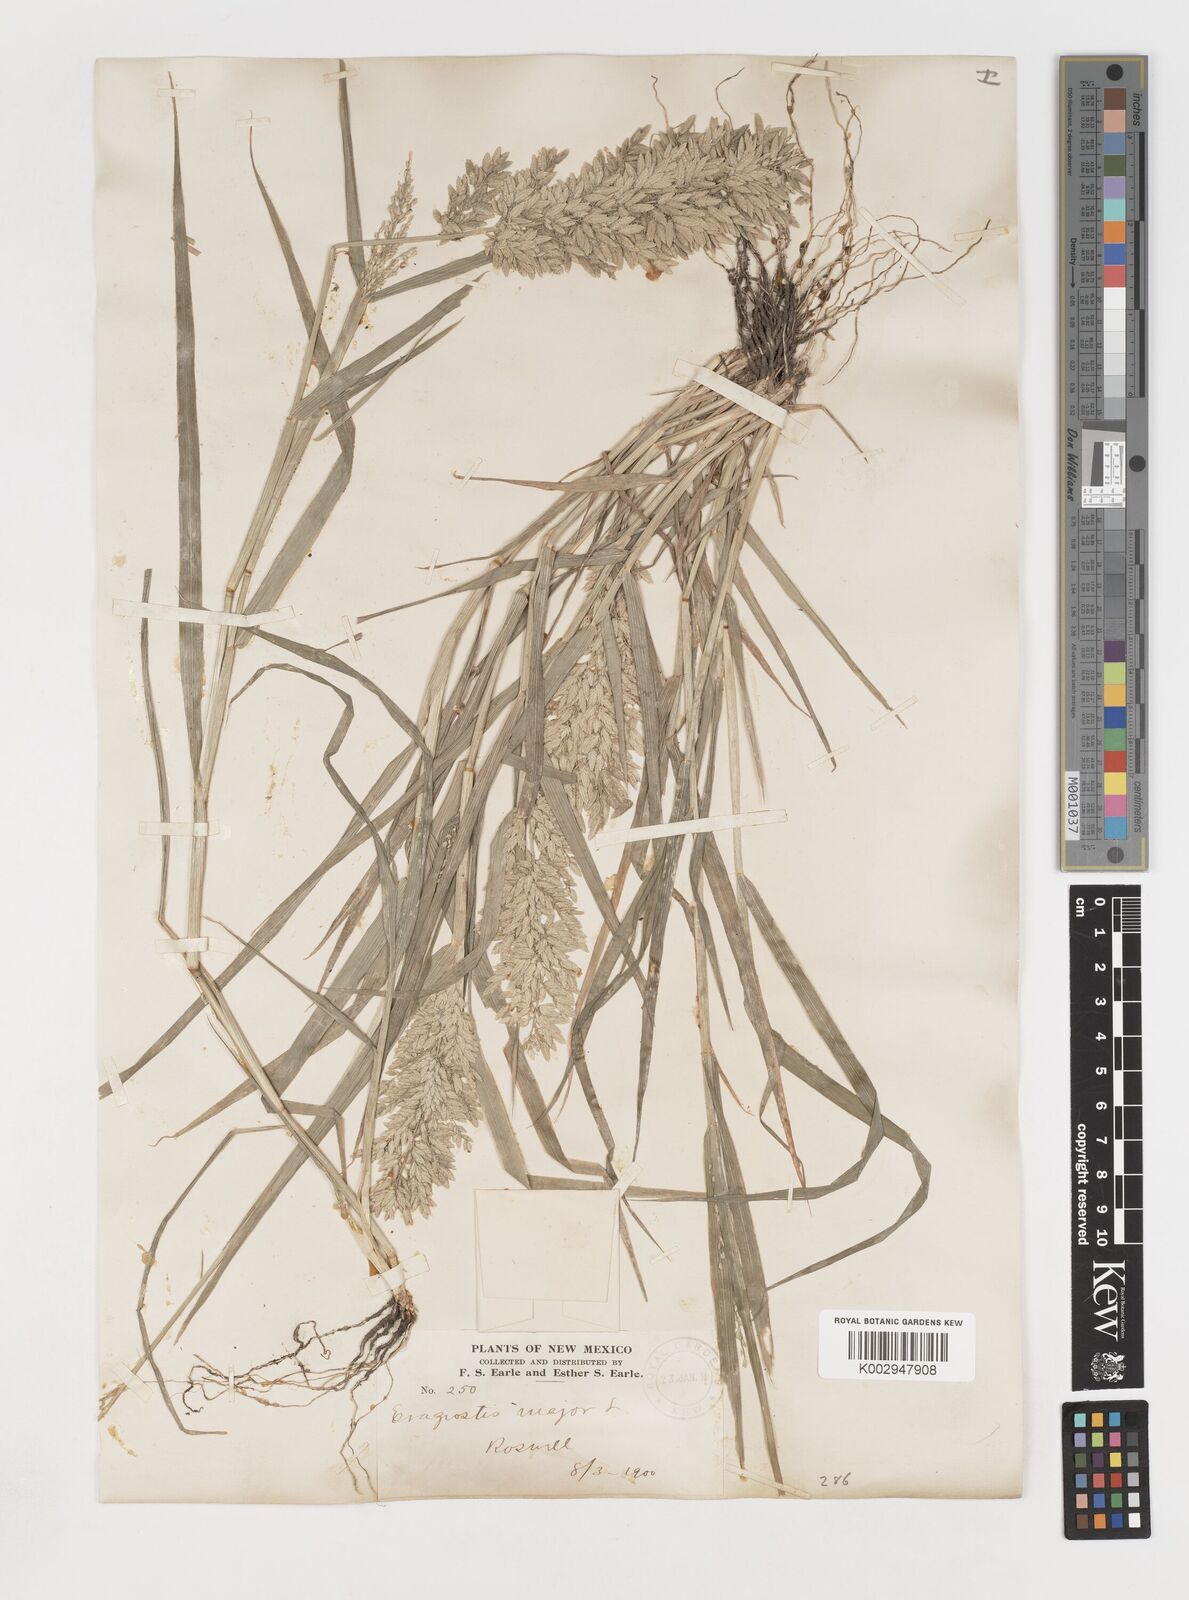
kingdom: Plantae
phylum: Tracheophyta
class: Liliopsida
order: Poales
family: Poaceae
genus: Eragrostis
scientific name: Eragrostis
